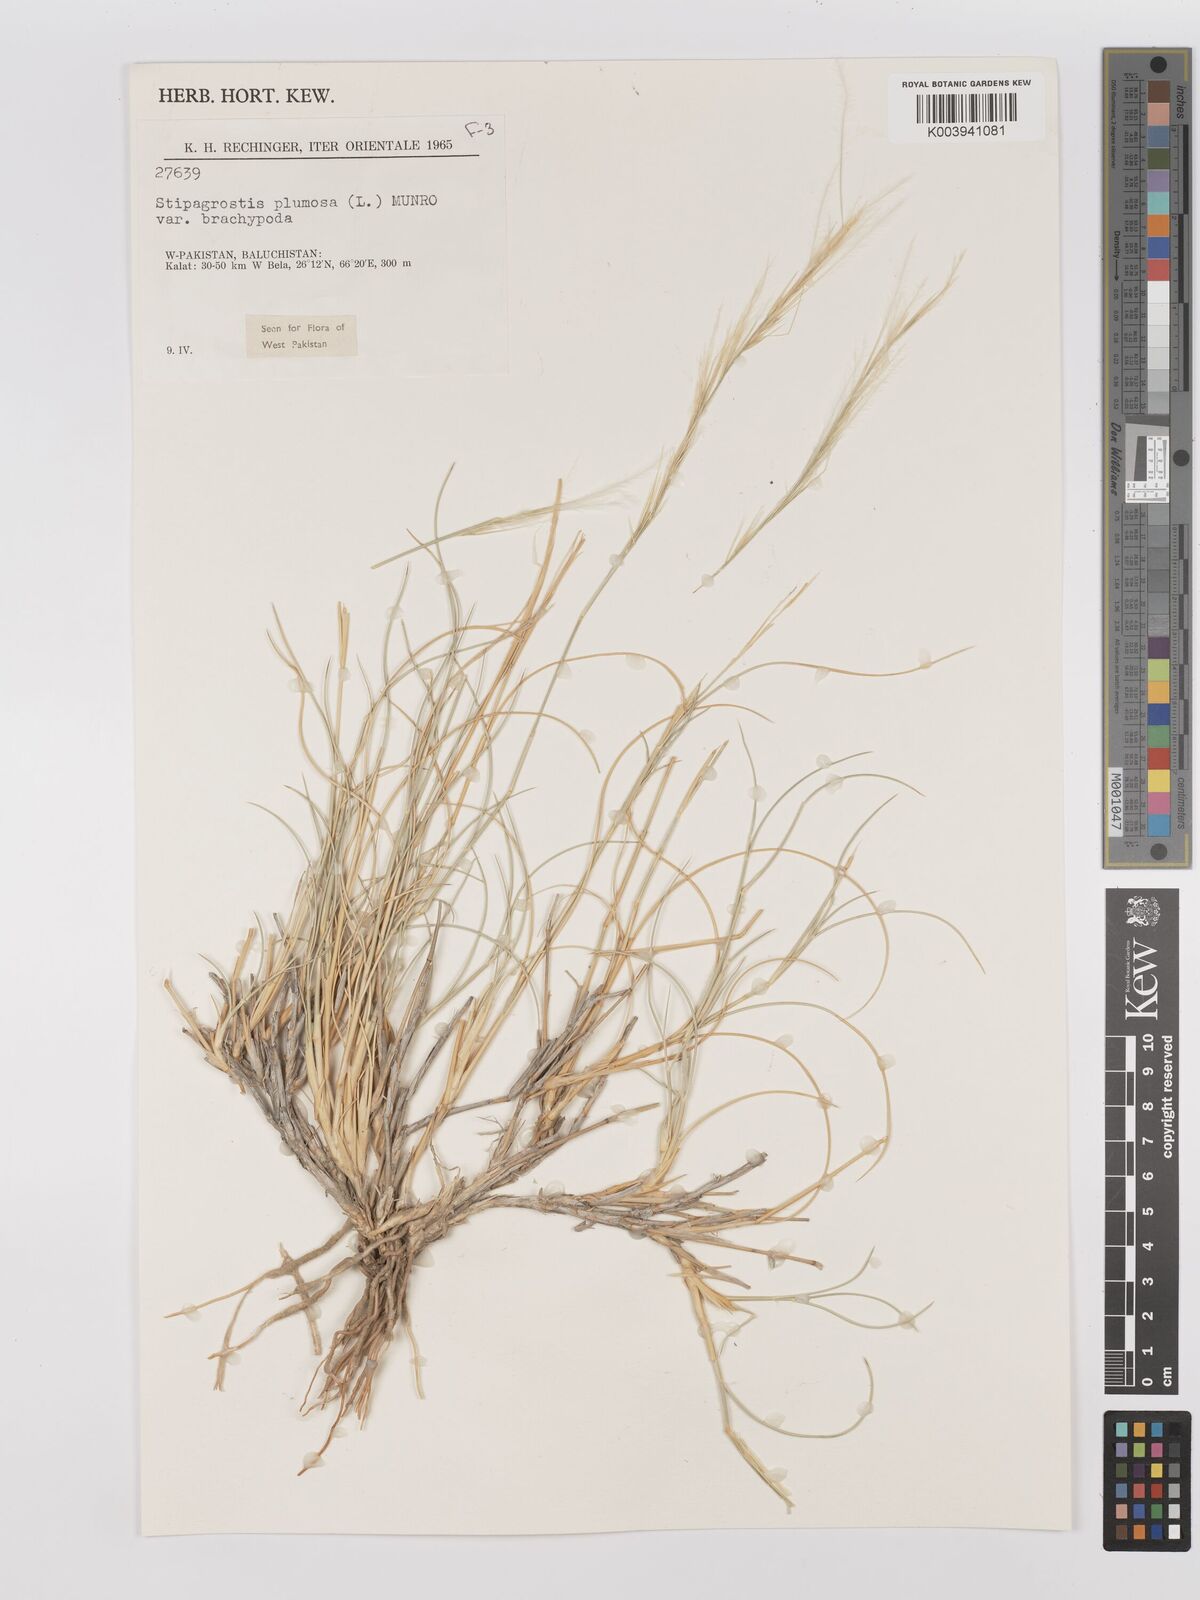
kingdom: Plantae
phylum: Tracheophyta
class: Liliopsida
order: Poales
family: Poaceae
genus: Stipagrostis
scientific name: Stipagrostis plumosa
